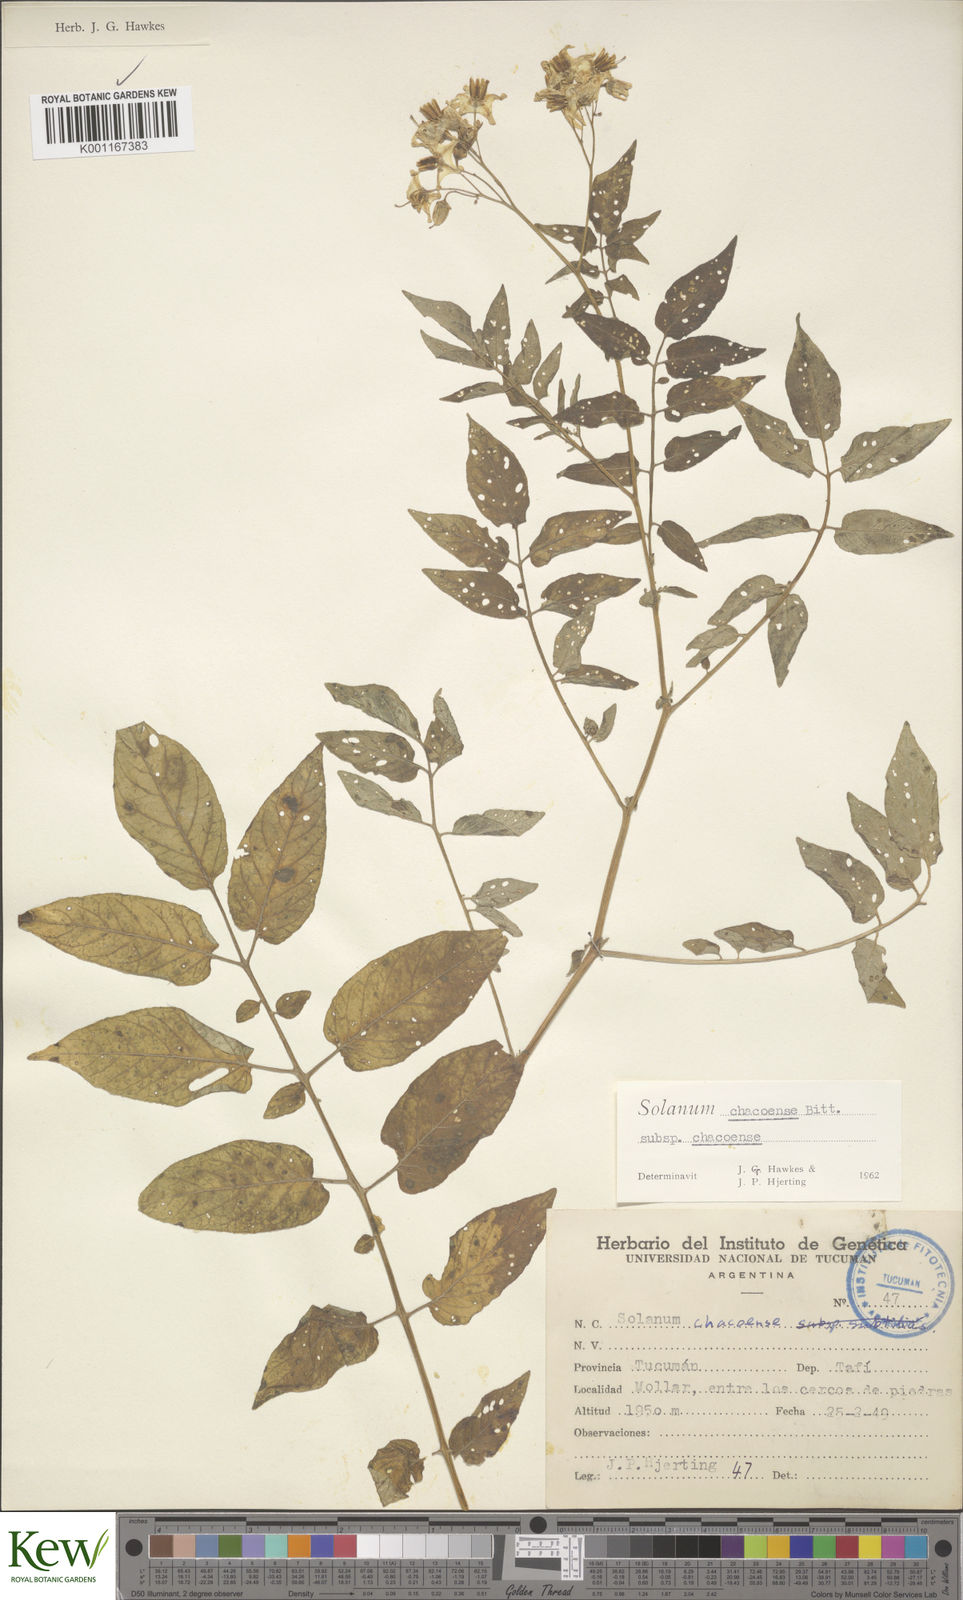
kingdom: Plantae
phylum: Tracheophyta
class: Magnoliopsida
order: Solanales
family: Solanaceae
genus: Solanum
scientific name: Solanum chacoense
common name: Chaco potato
